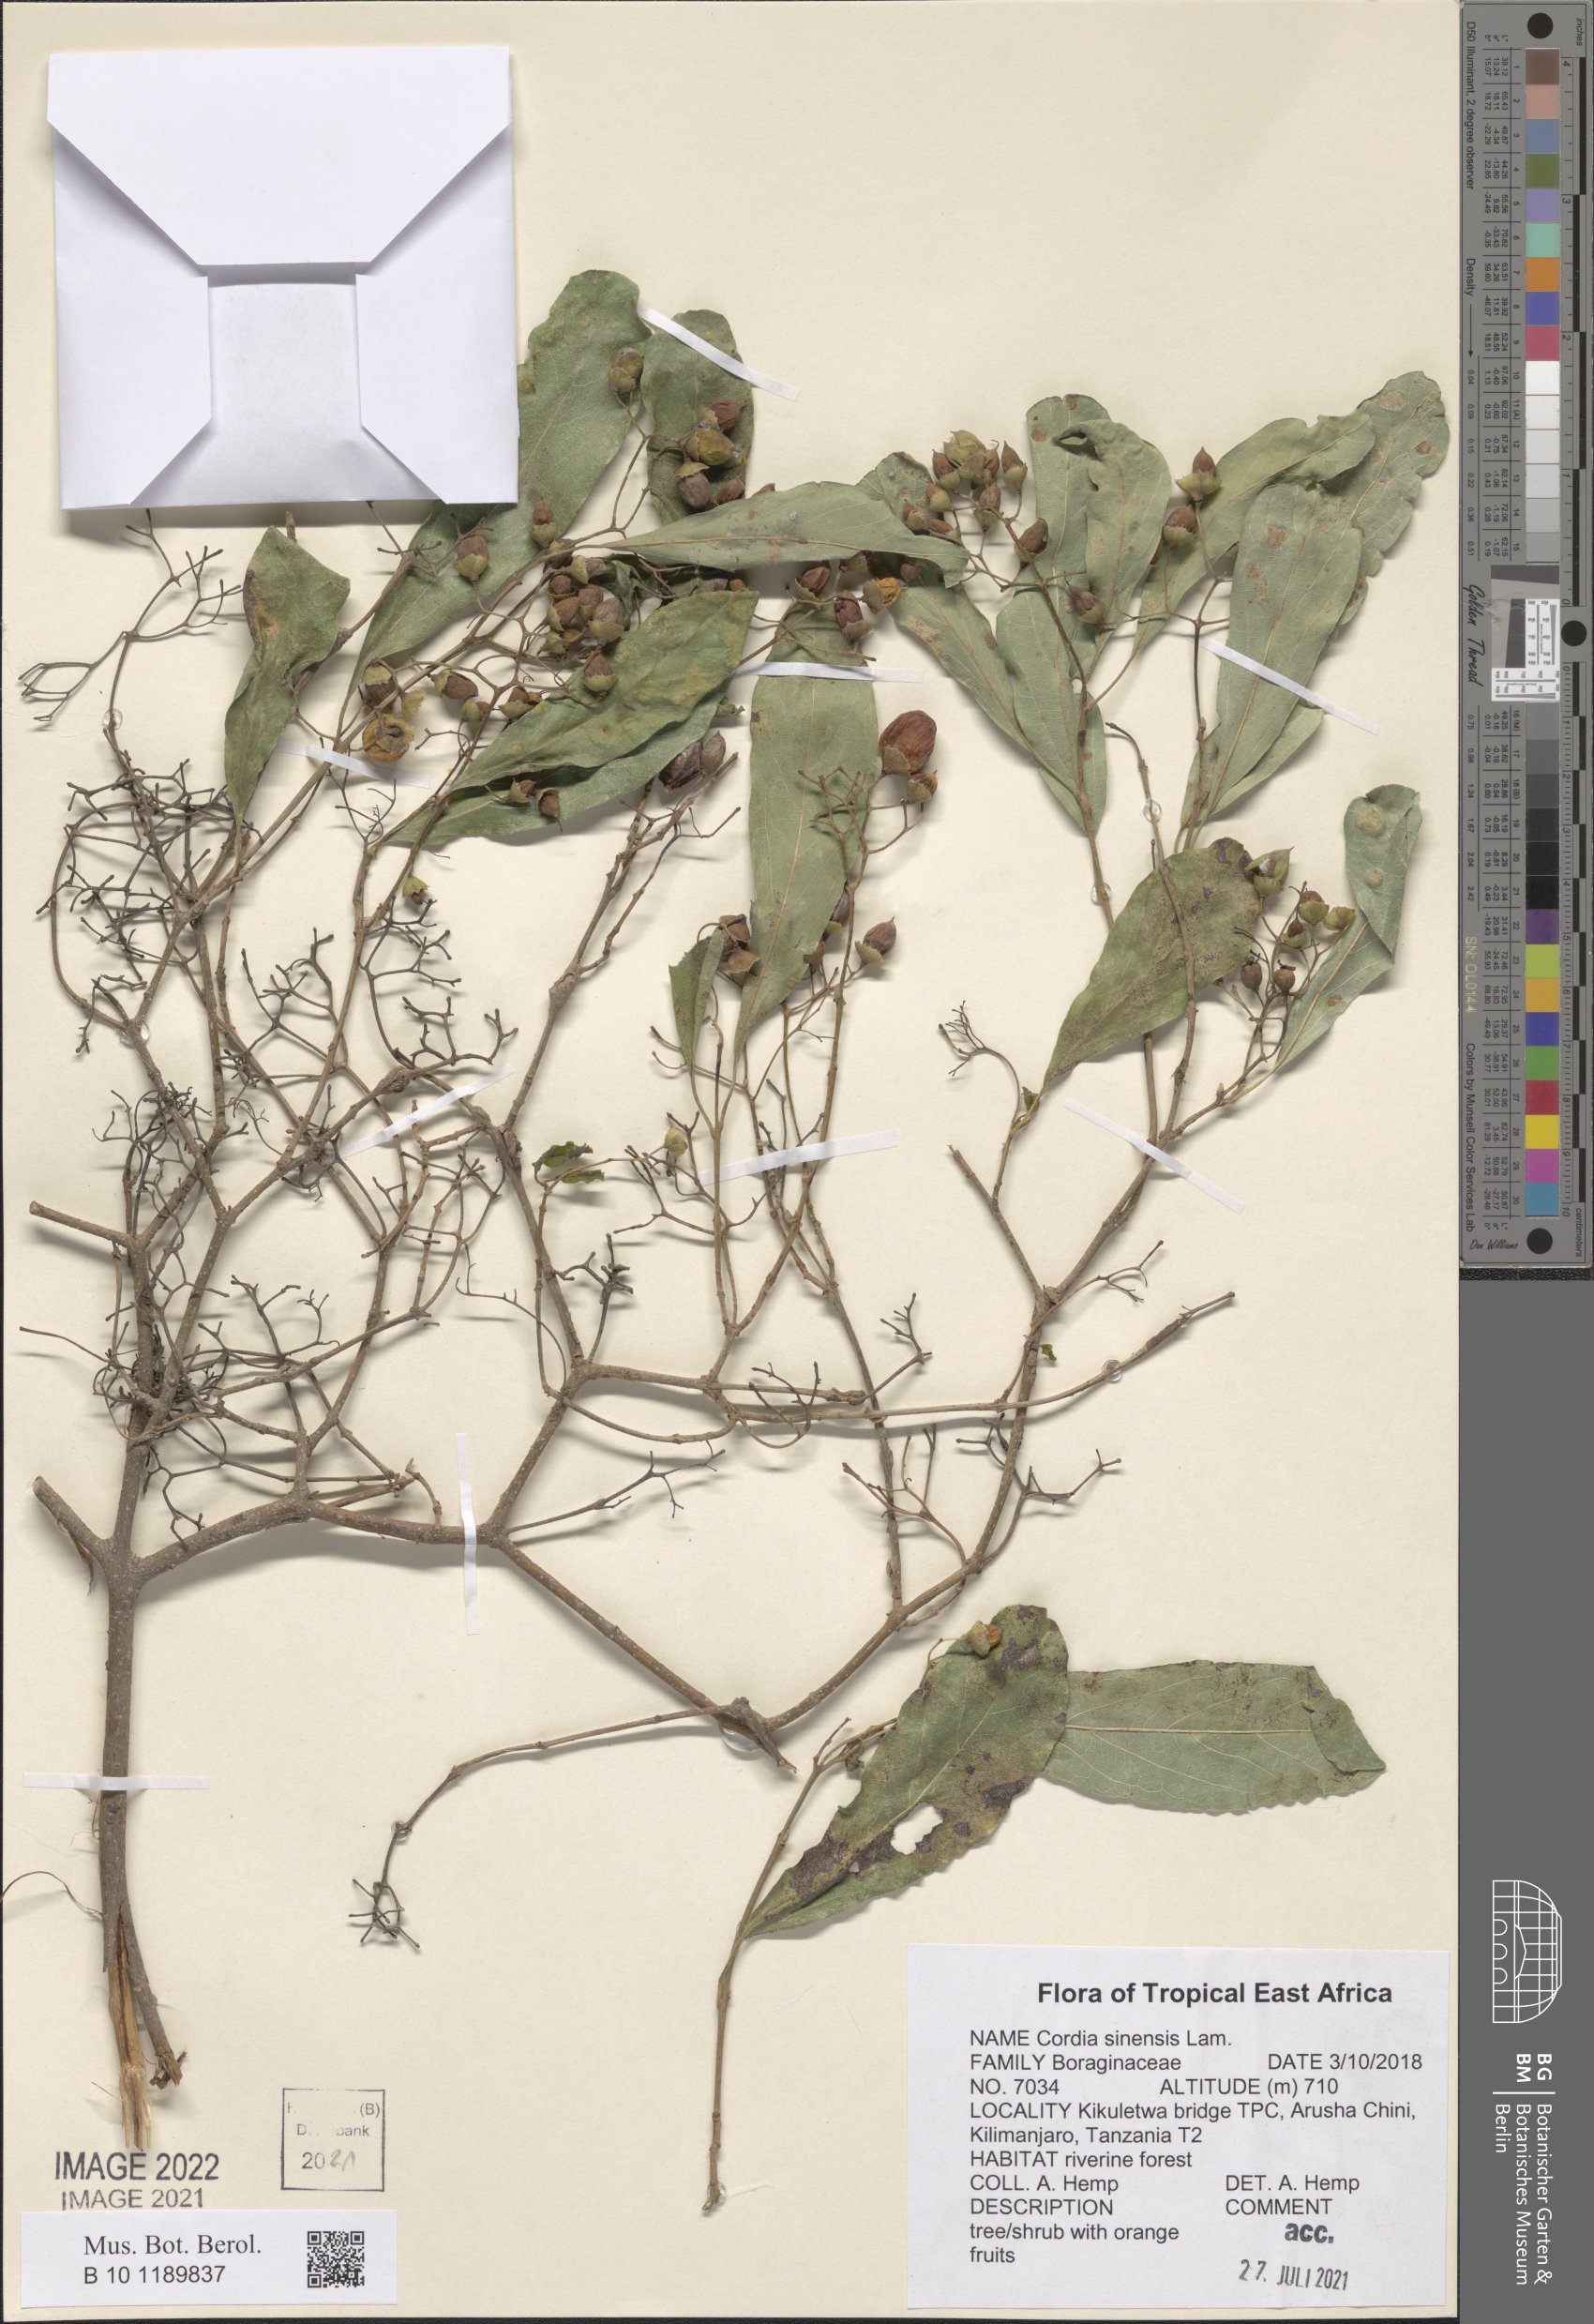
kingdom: Plantae
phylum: Tracheophyta
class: Magnoliopsida
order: Boraginales
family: Cordiaceae
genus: Cordia
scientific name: Cordia sinensis
